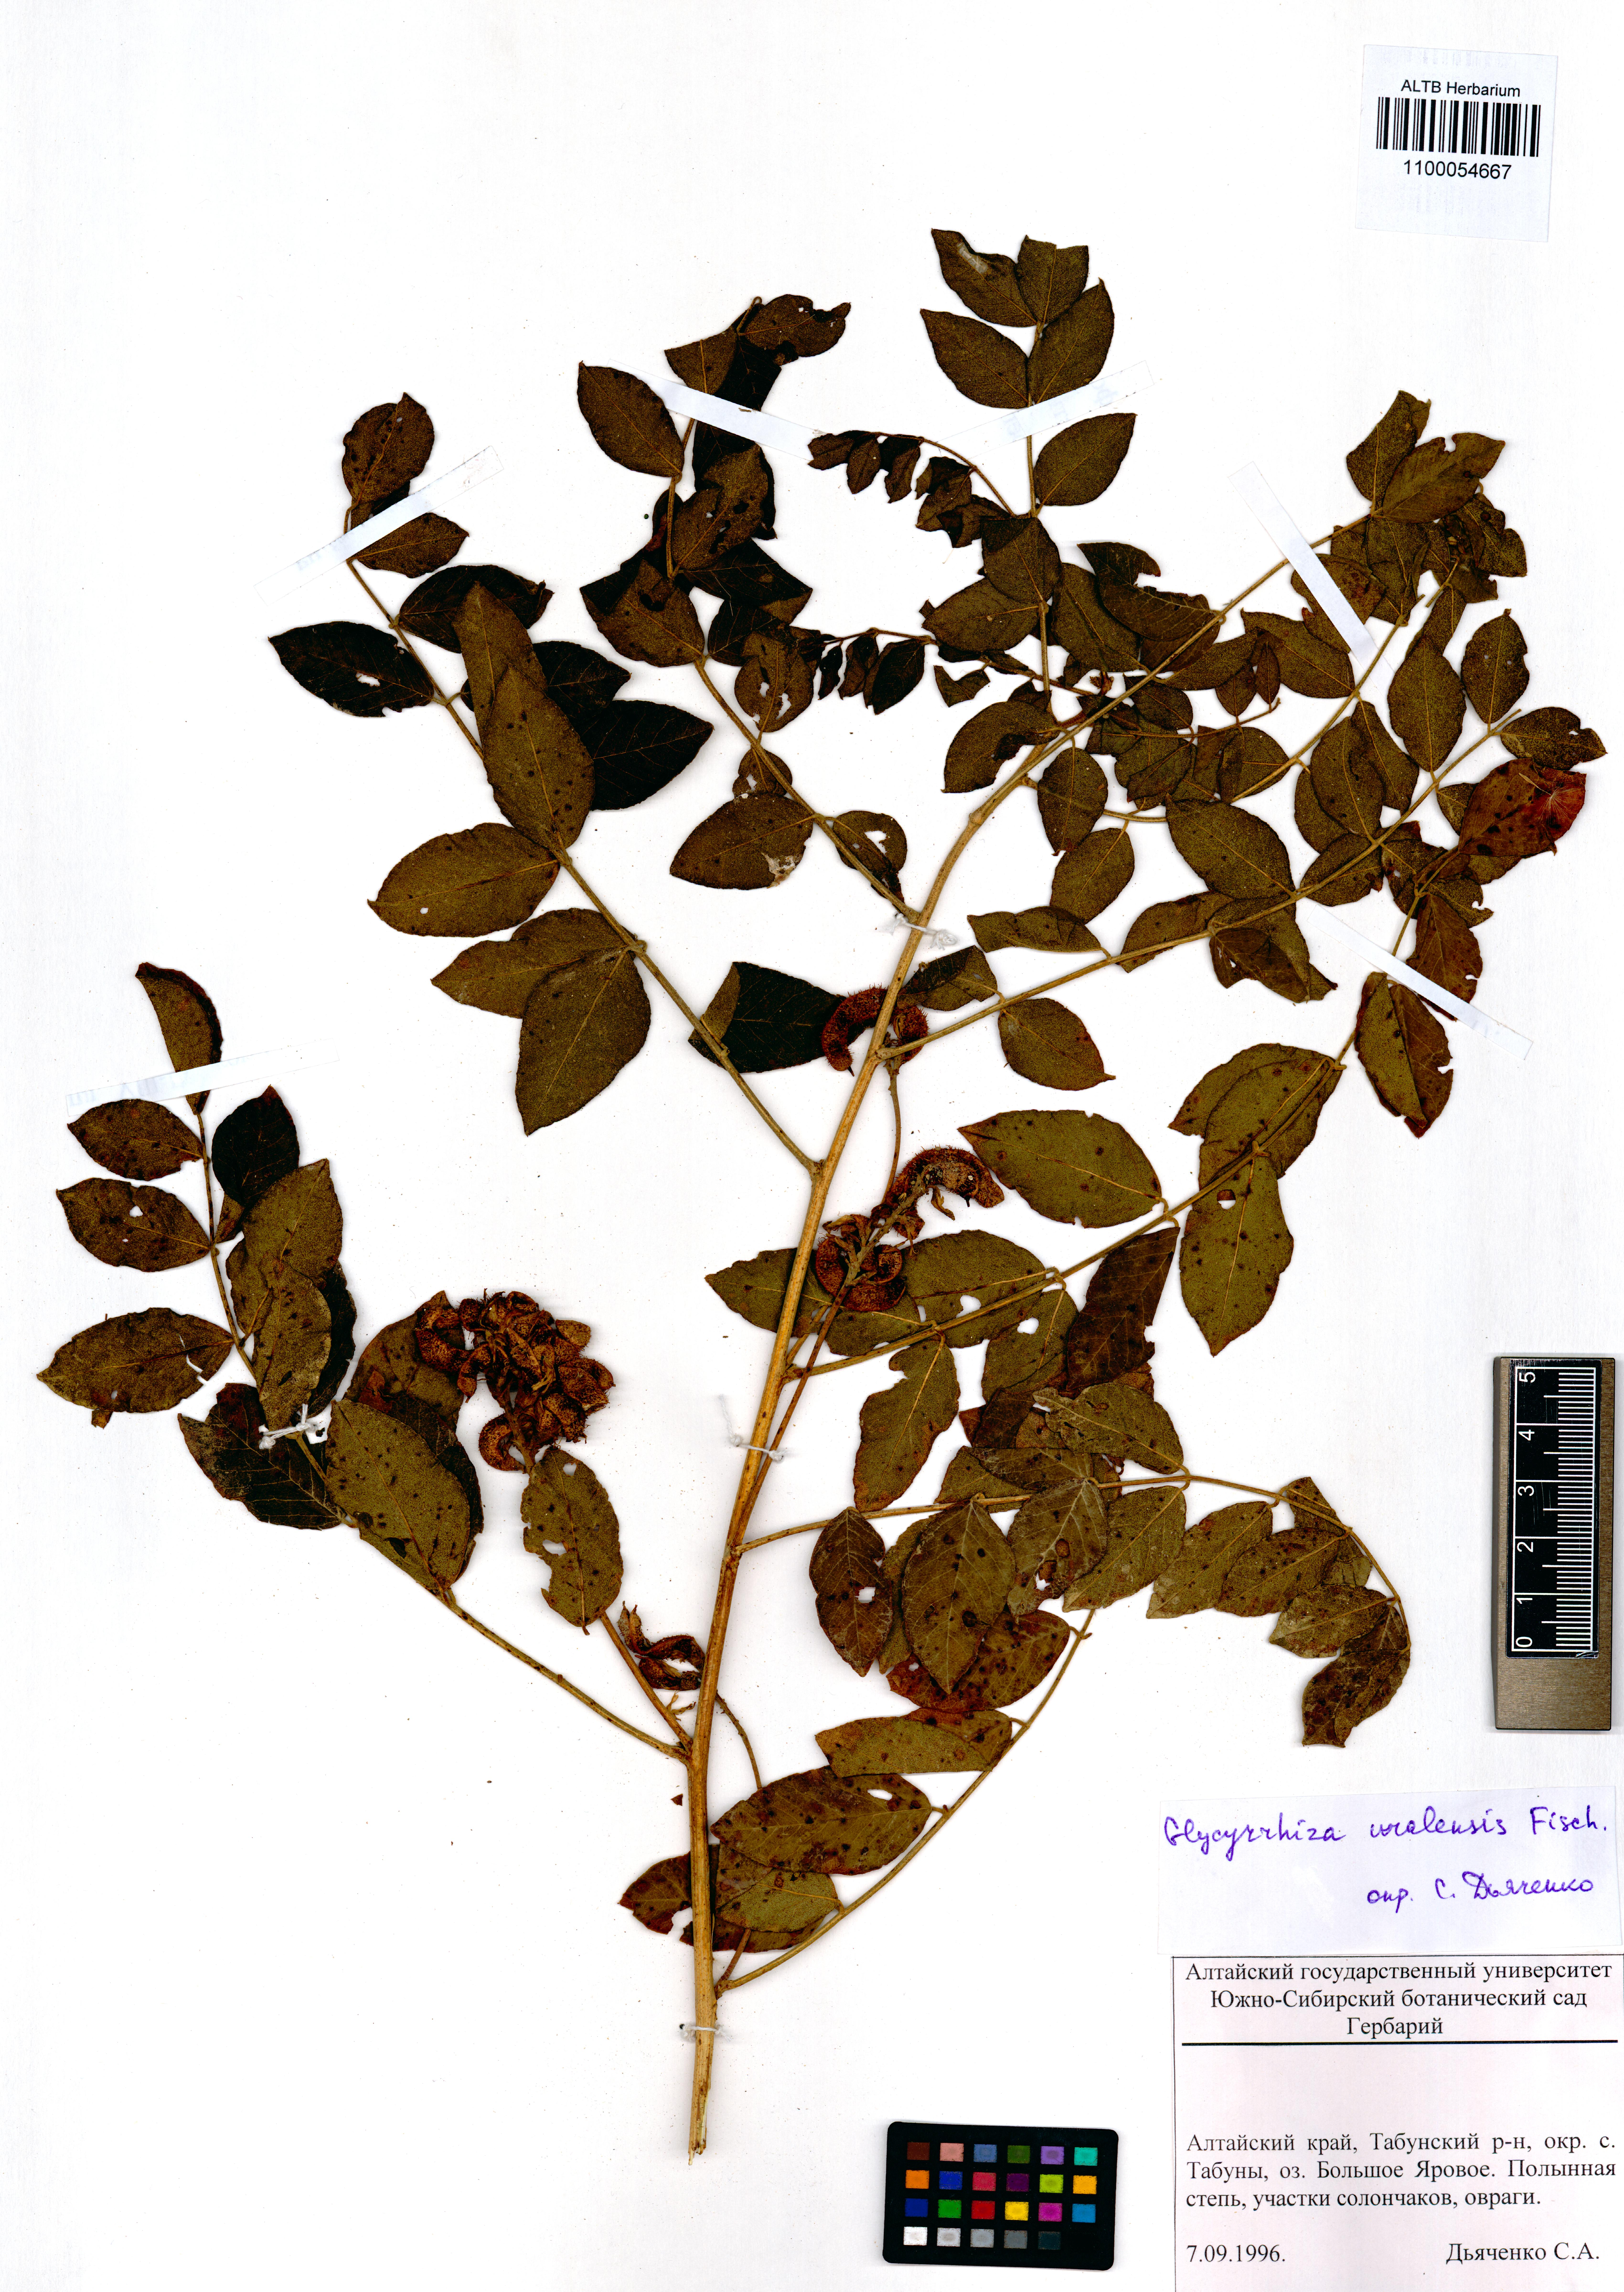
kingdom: Plantae
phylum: Tracheophyta
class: Magnoliopsida
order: Fabales
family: Fabaceae
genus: Glycyrrhiza
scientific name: Glycyrrhiza uralensis
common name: Chinese licorice
